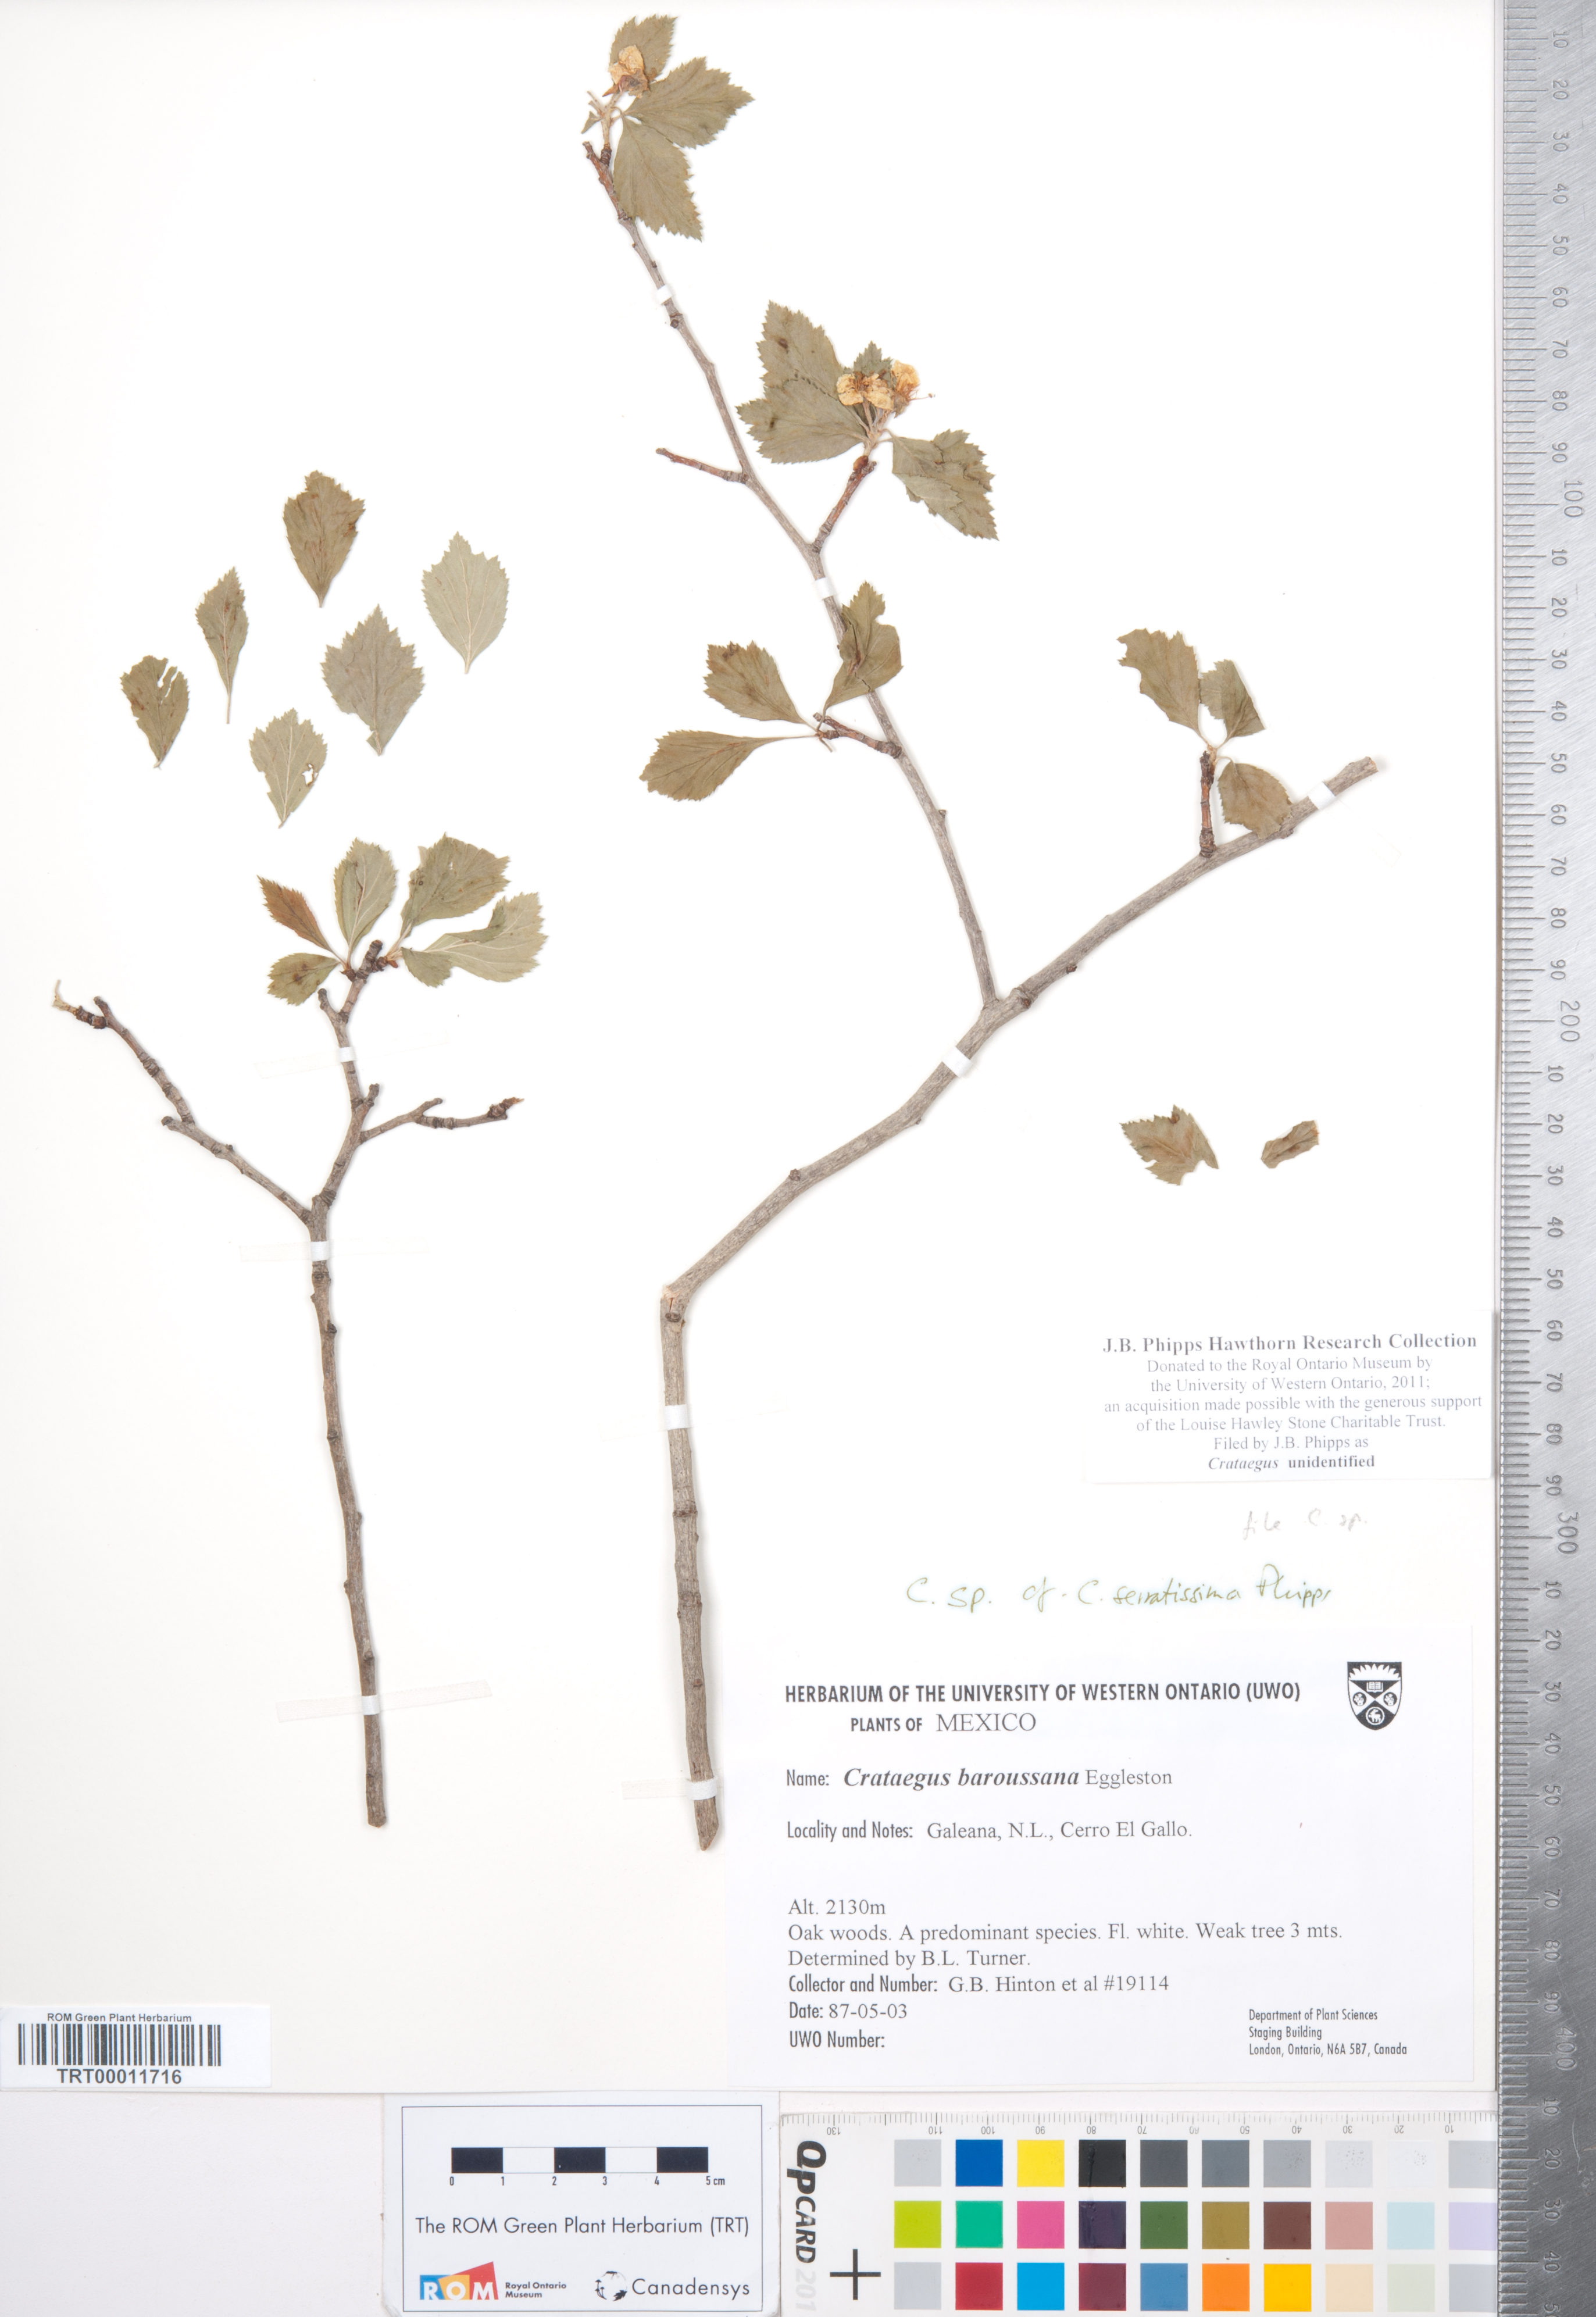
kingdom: Plantae
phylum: Tracheophyta
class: Magnoliopsida
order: Rosales
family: Rosaceae
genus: Crataegus
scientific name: Crataegus
